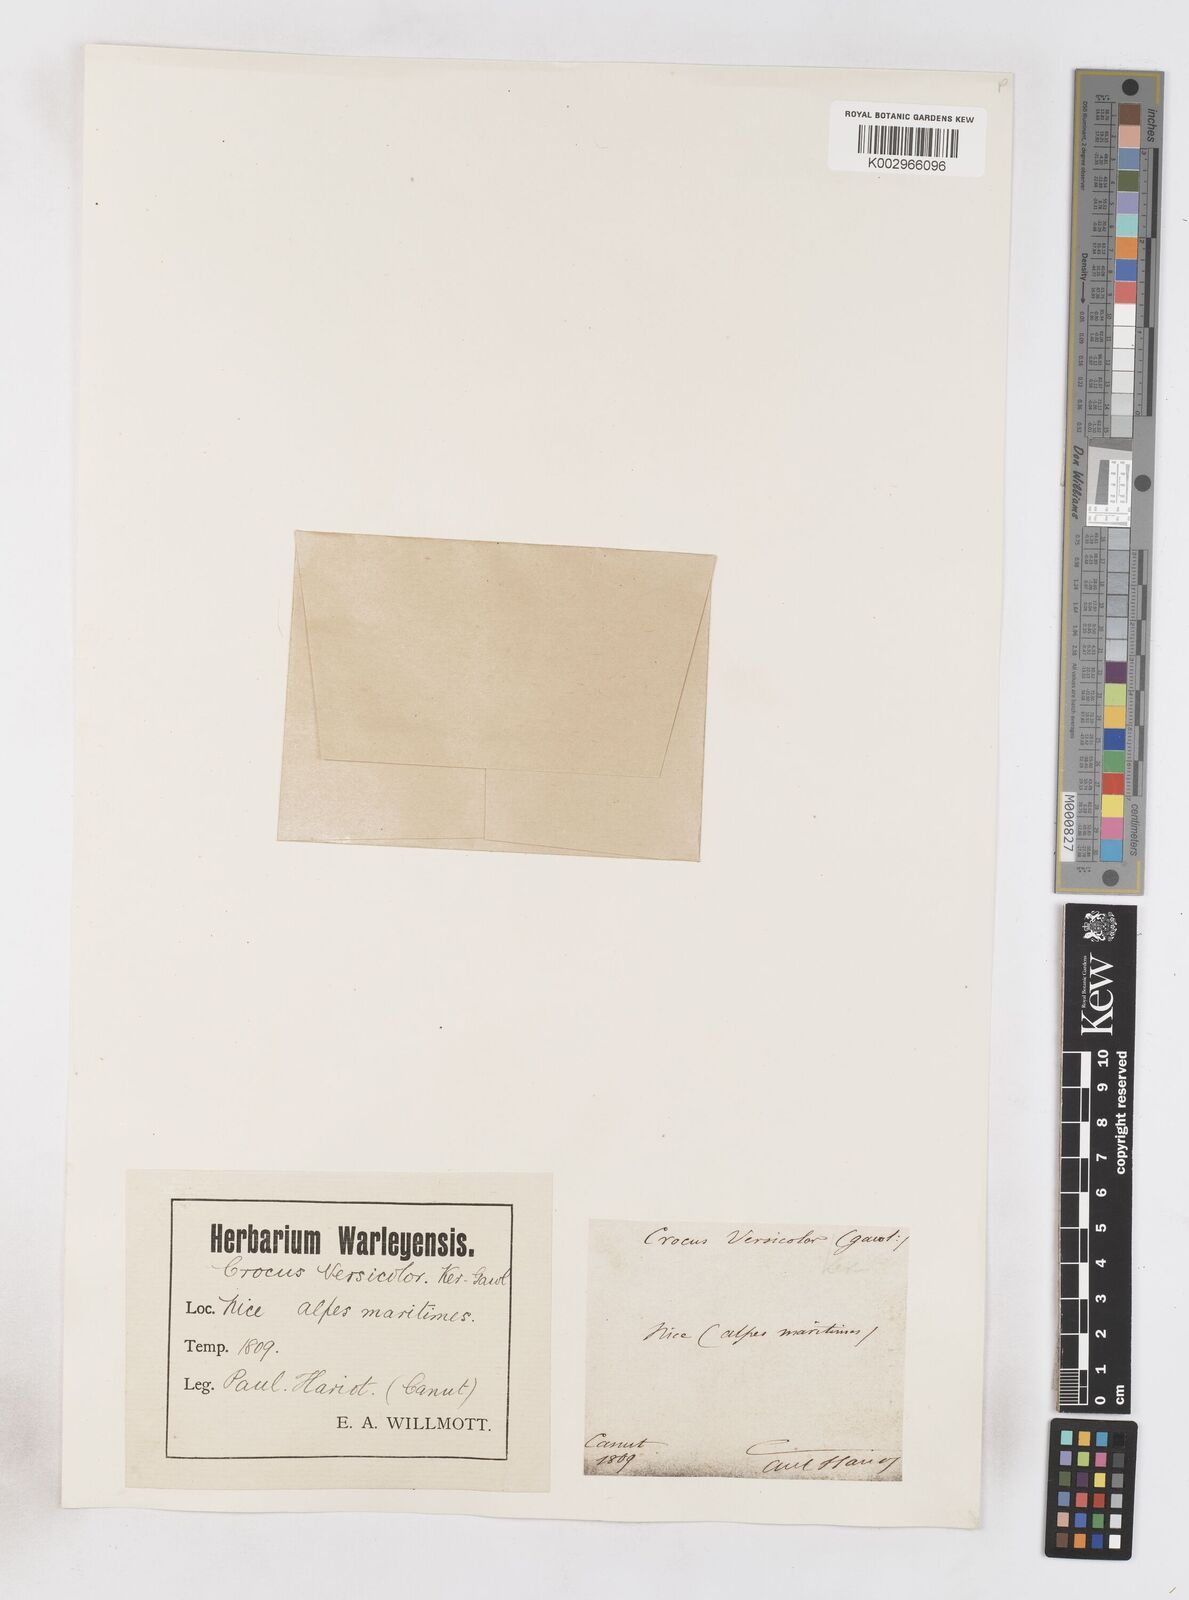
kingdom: Plantae
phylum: Tracheophyta
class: Liliopsida
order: Asparagales
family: Iridaceae
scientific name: Iridaceae
